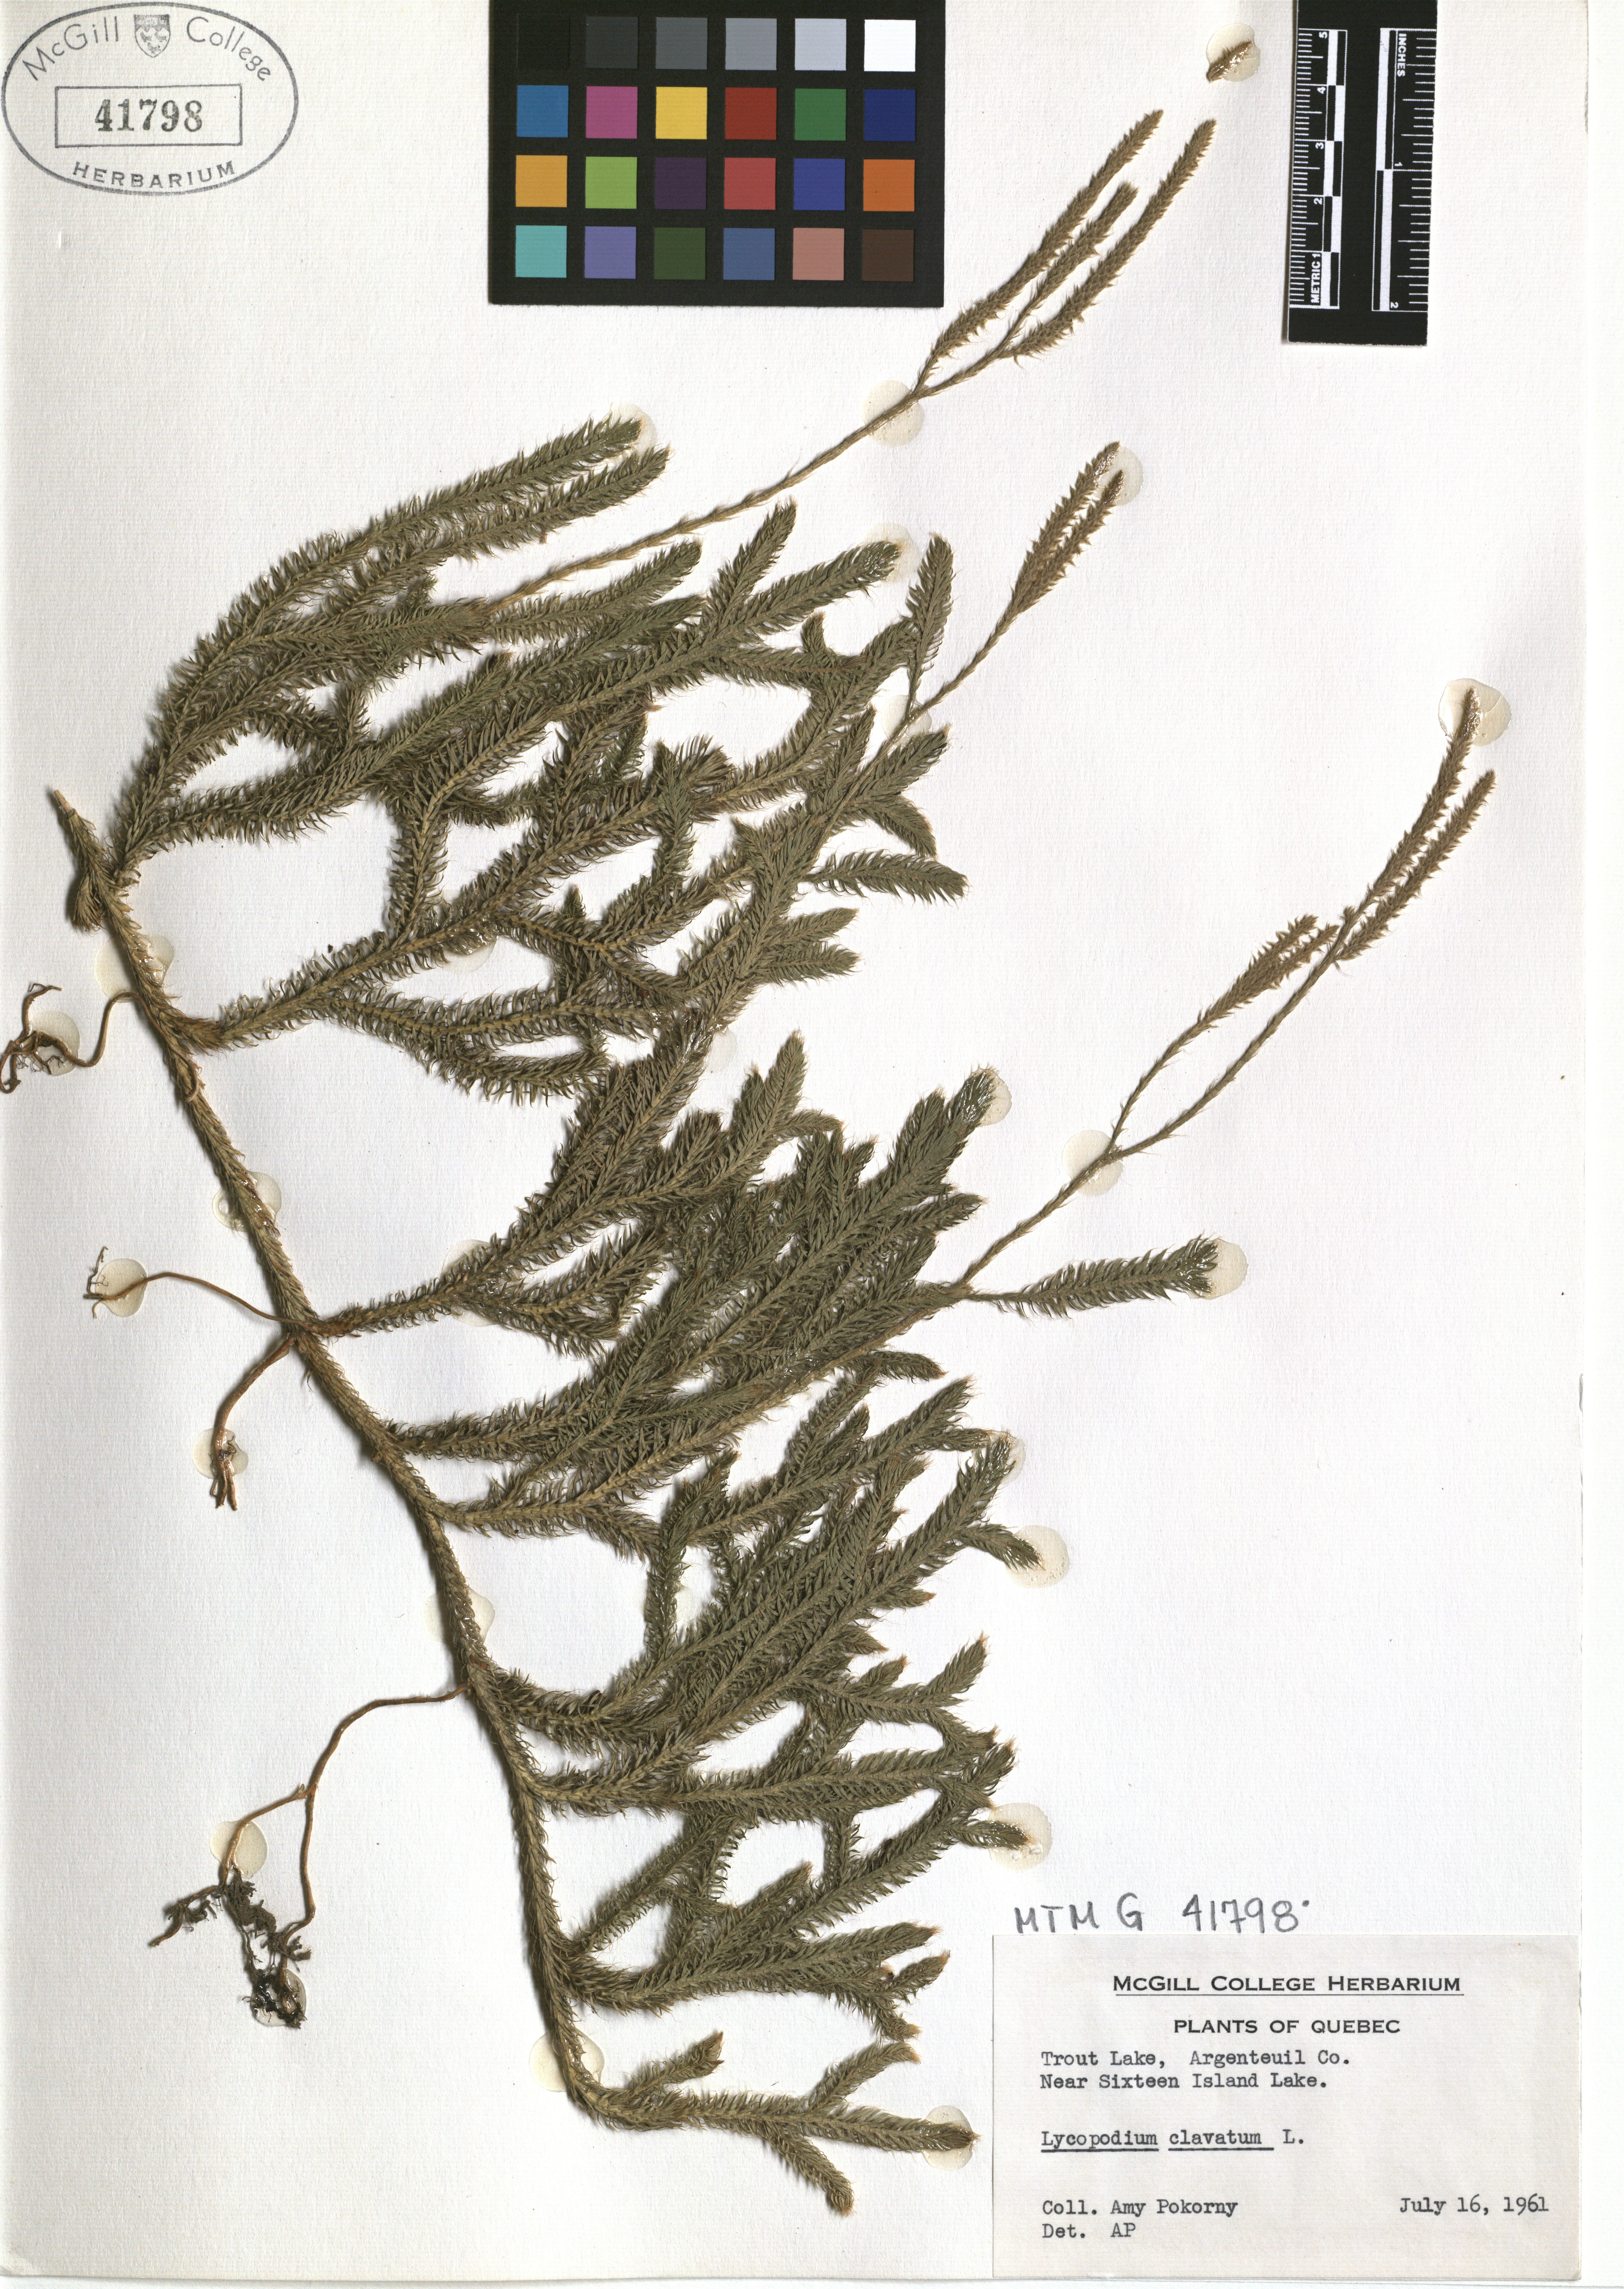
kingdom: Plantae
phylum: Tracheophyta
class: Lycopodiopsida
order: Lycopodiales
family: Lycopodiaceae
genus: Lycopodium
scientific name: Lycopodium clavatum
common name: Stag's-horn clubmoss
